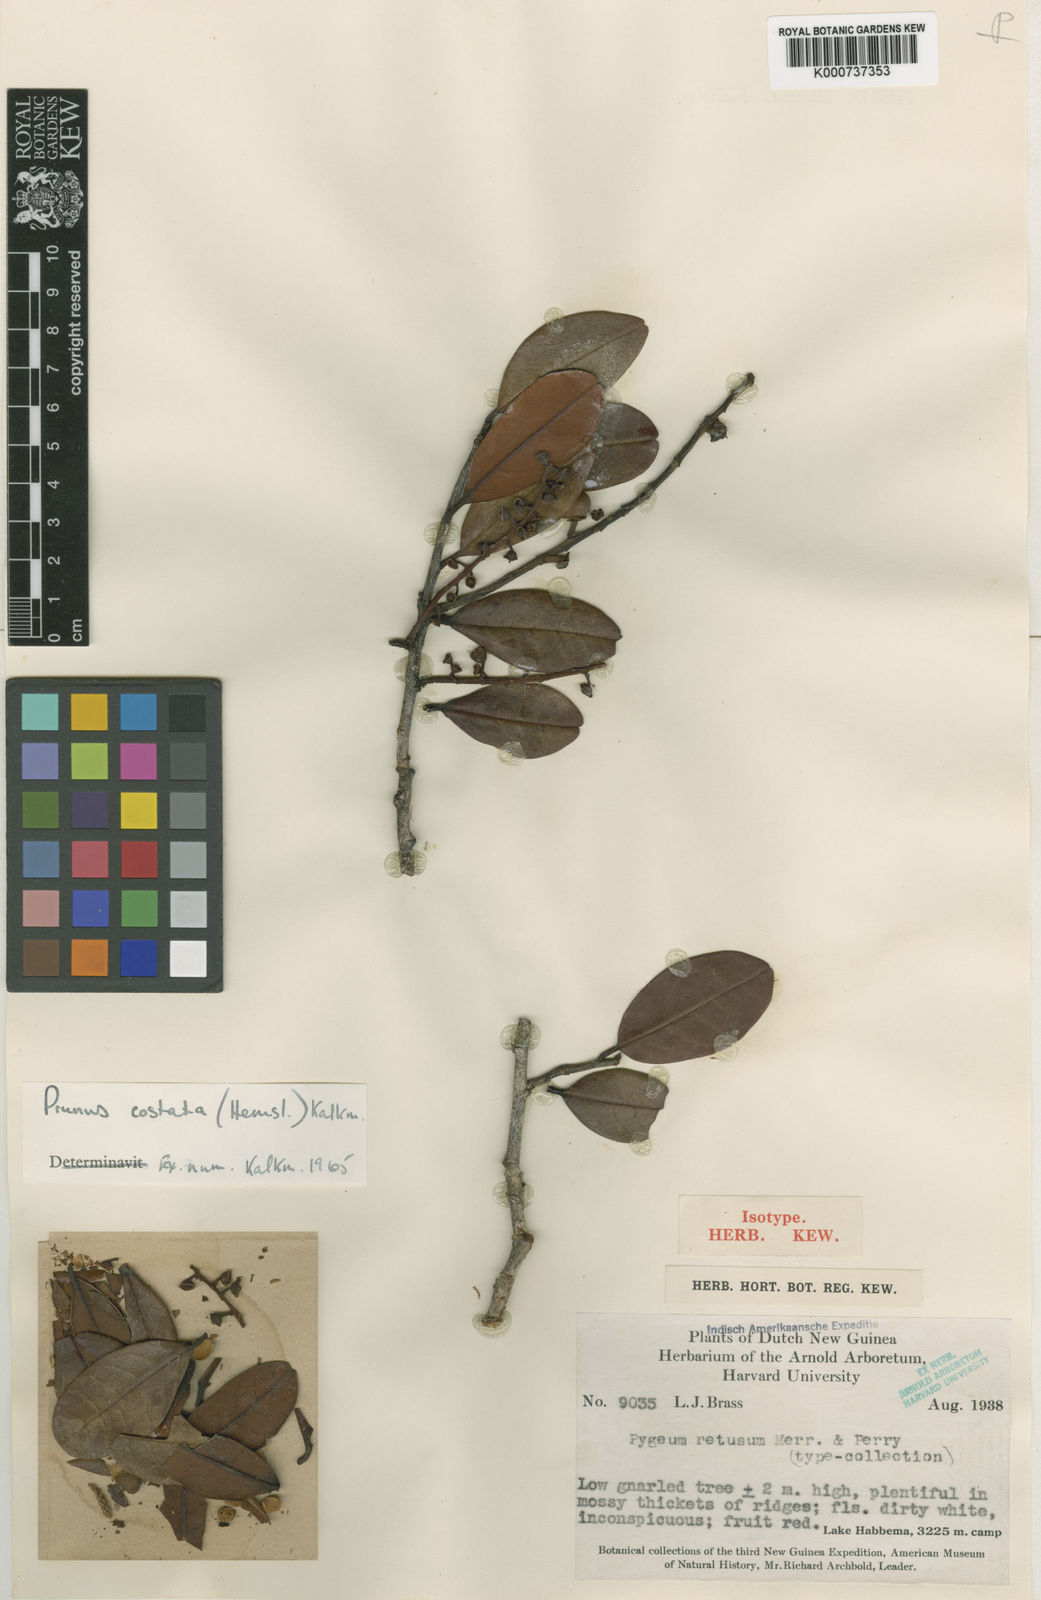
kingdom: Plantae
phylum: Tracheophyta
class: Magnoliopsida
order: Rosales
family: Rosaceae
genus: Prunus
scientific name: Prunus costata
